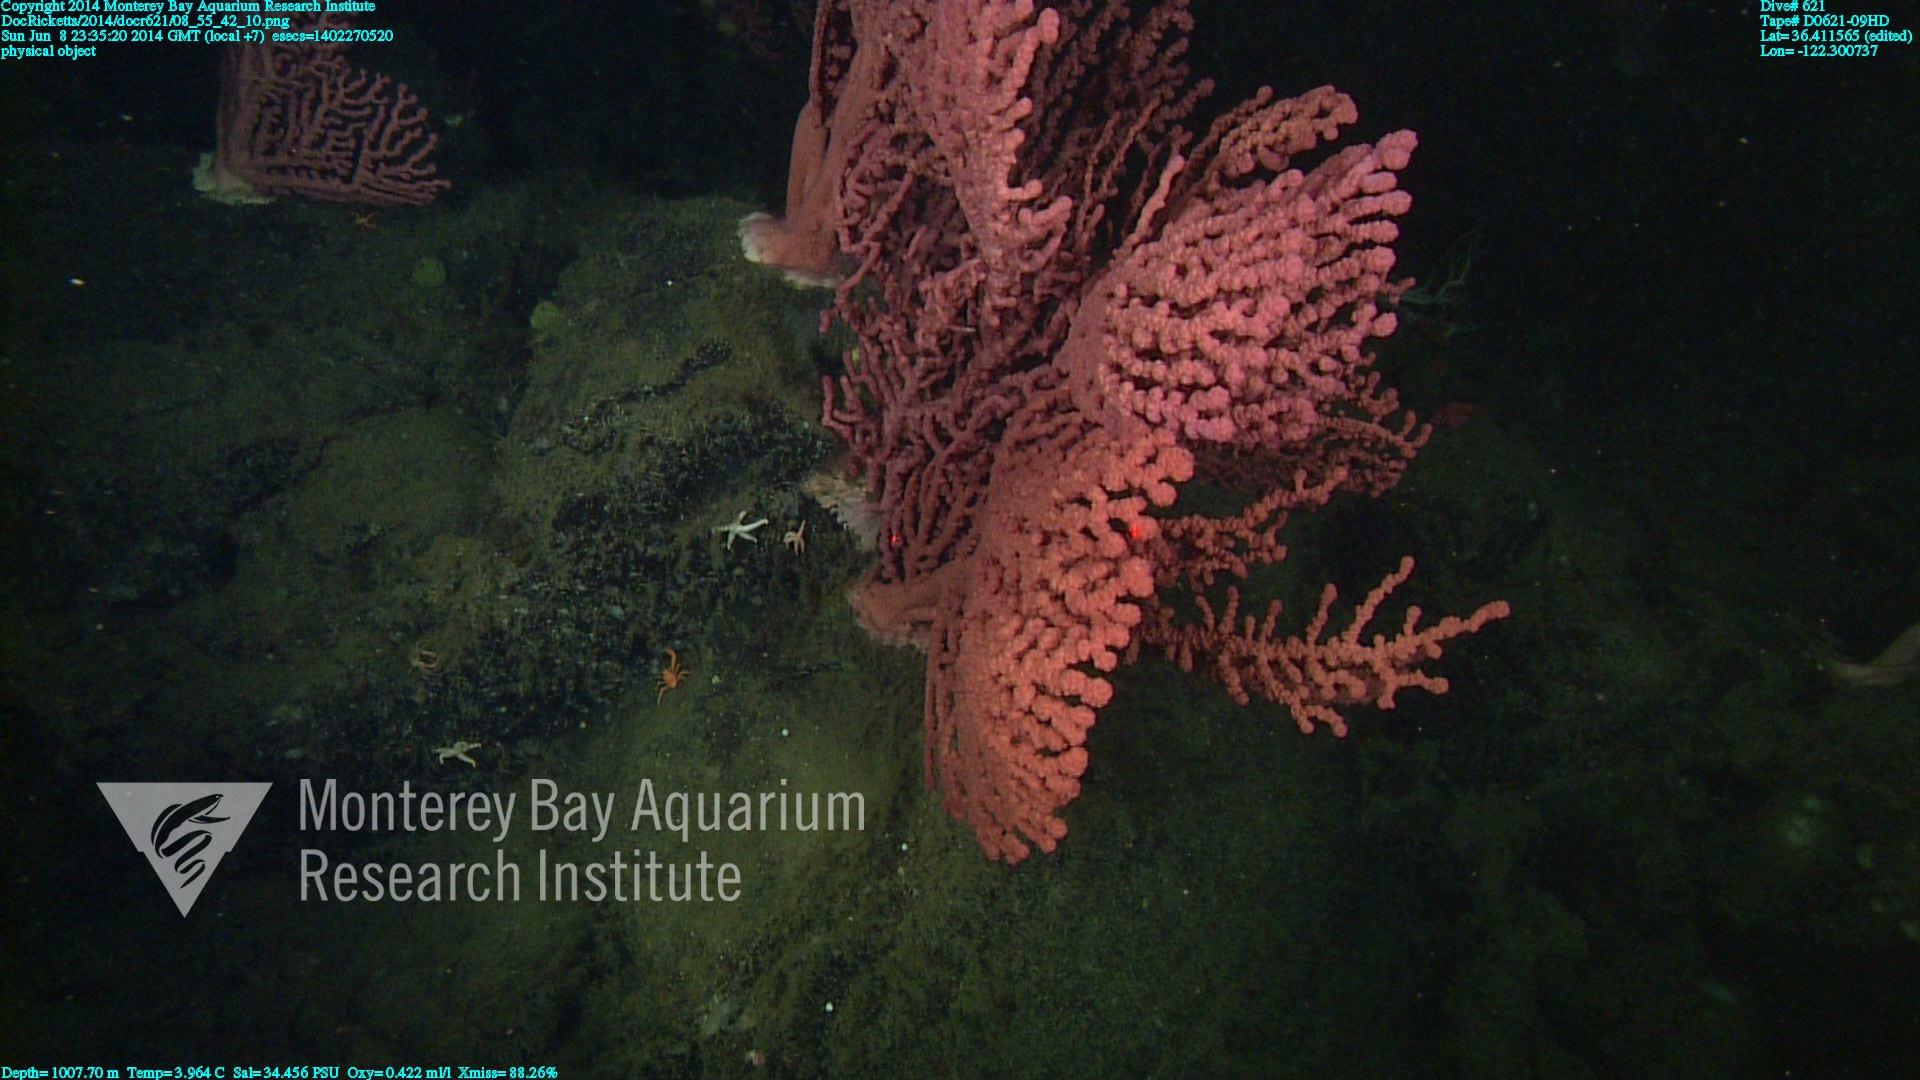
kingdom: Animalia
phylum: Cnidaria
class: Anthozoa
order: Scleralcyonacea
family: Coralliidae
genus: Paragorgia
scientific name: Paragorgia arborea
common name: Bubble gum coral
